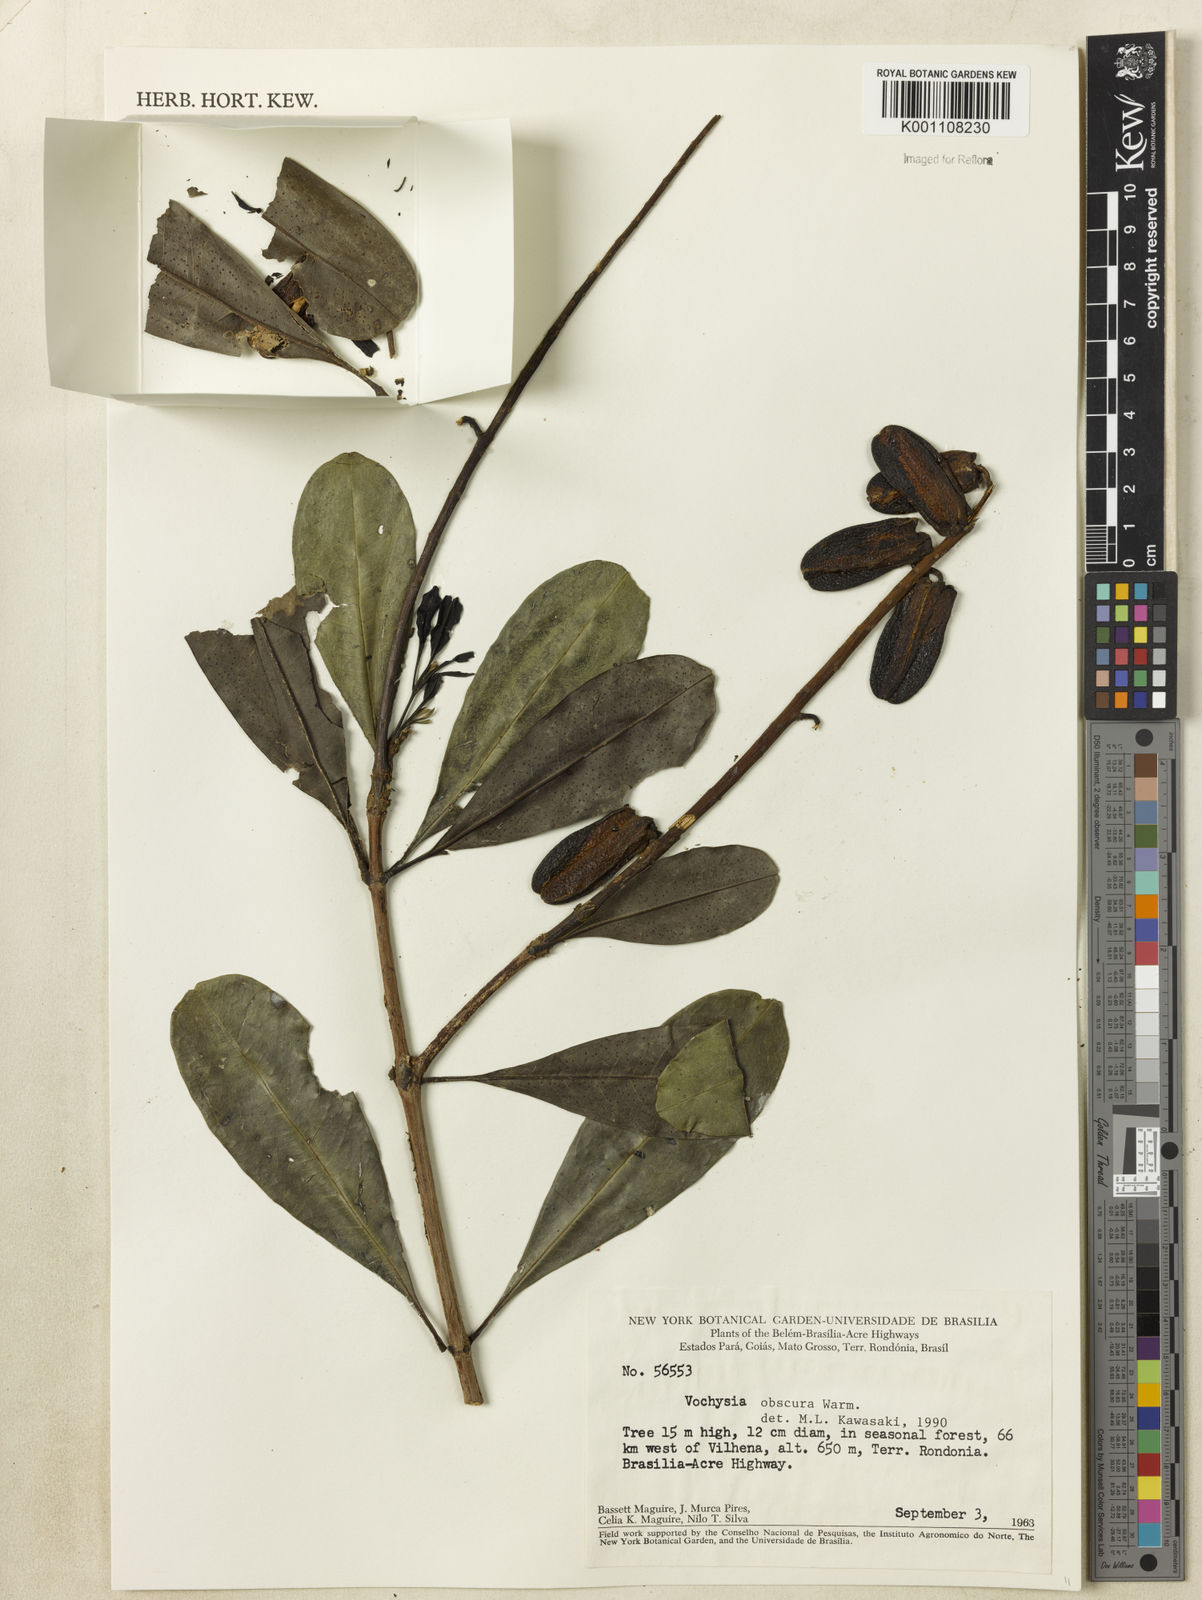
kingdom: Plantae
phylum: Tracheophyta
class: Magnoliopsida
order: Myrtales
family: Vochysiaceae
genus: Vochysia
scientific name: Vochysia obscura
